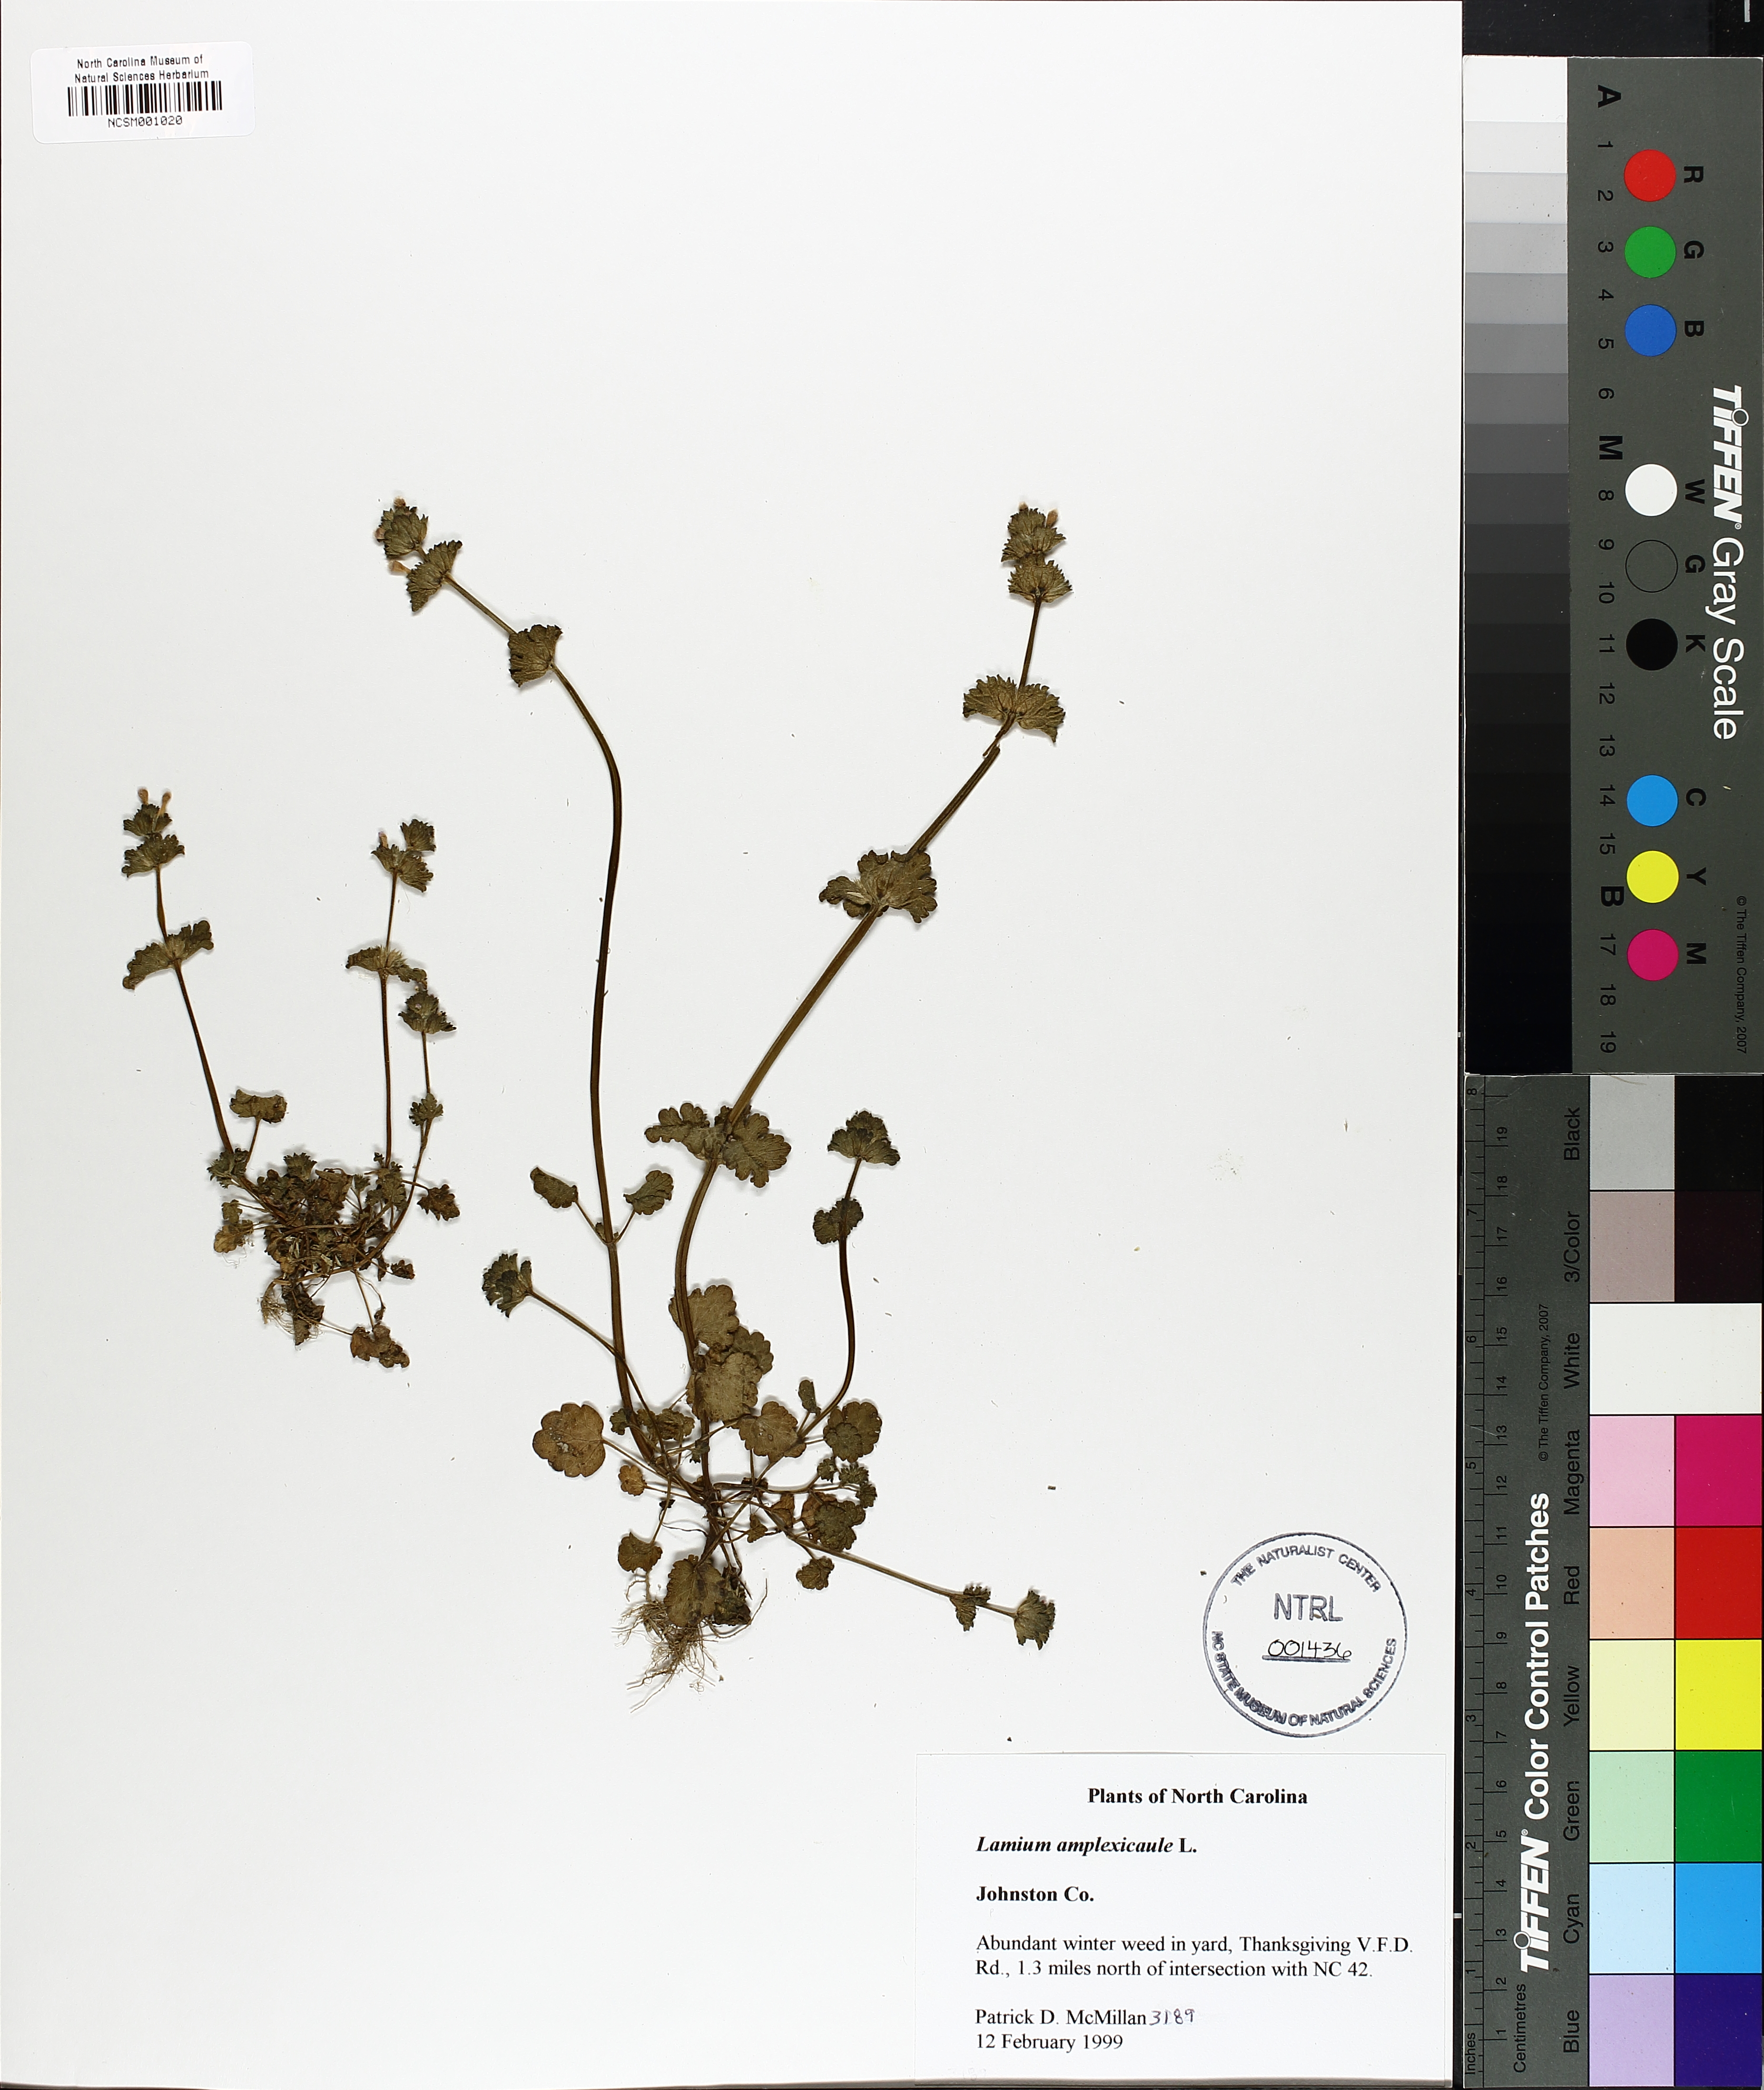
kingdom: Plantae
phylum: Tracheophyta
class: Magnoliopsida
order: Lamiales
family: Lamiaceae
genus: Lamium
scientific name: Lamium amplexicaule
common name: Henbit dead-nettle
